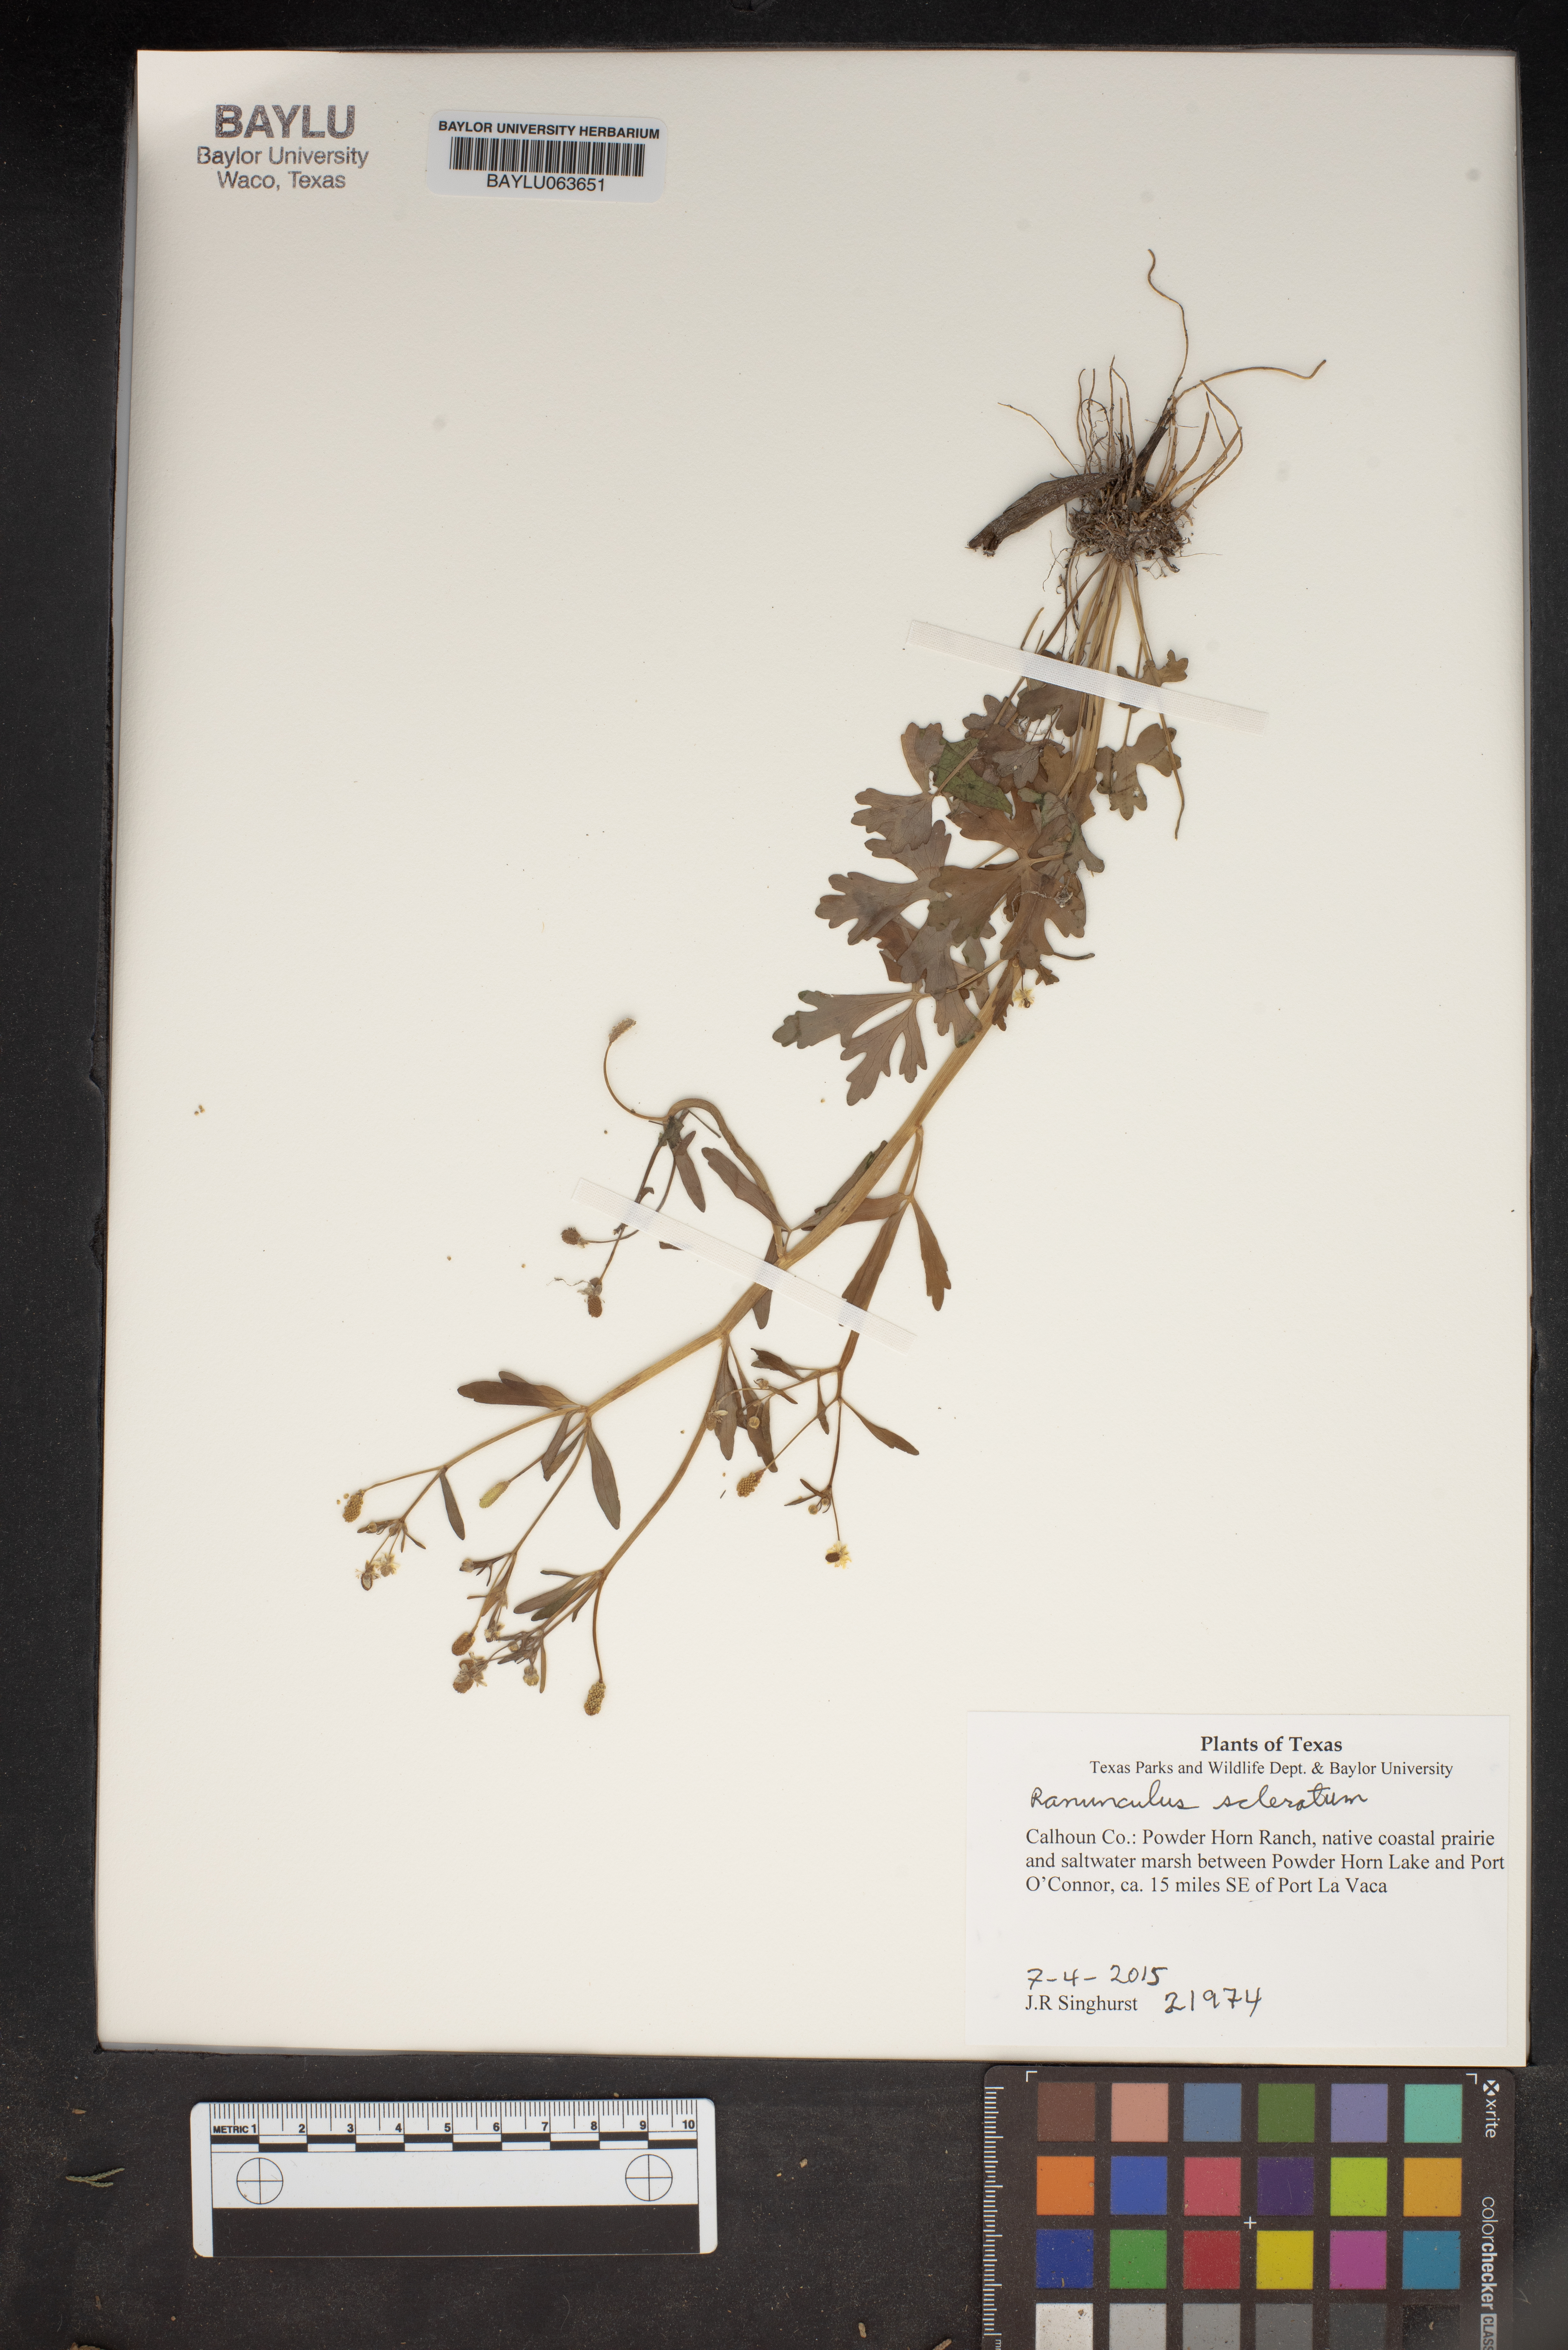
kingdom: Plantae
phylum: Tracheophyta
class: Magnoliopsida
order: Ranunculales
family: Ranunculaceae
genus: Ranunculus
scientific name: Ranunculus
